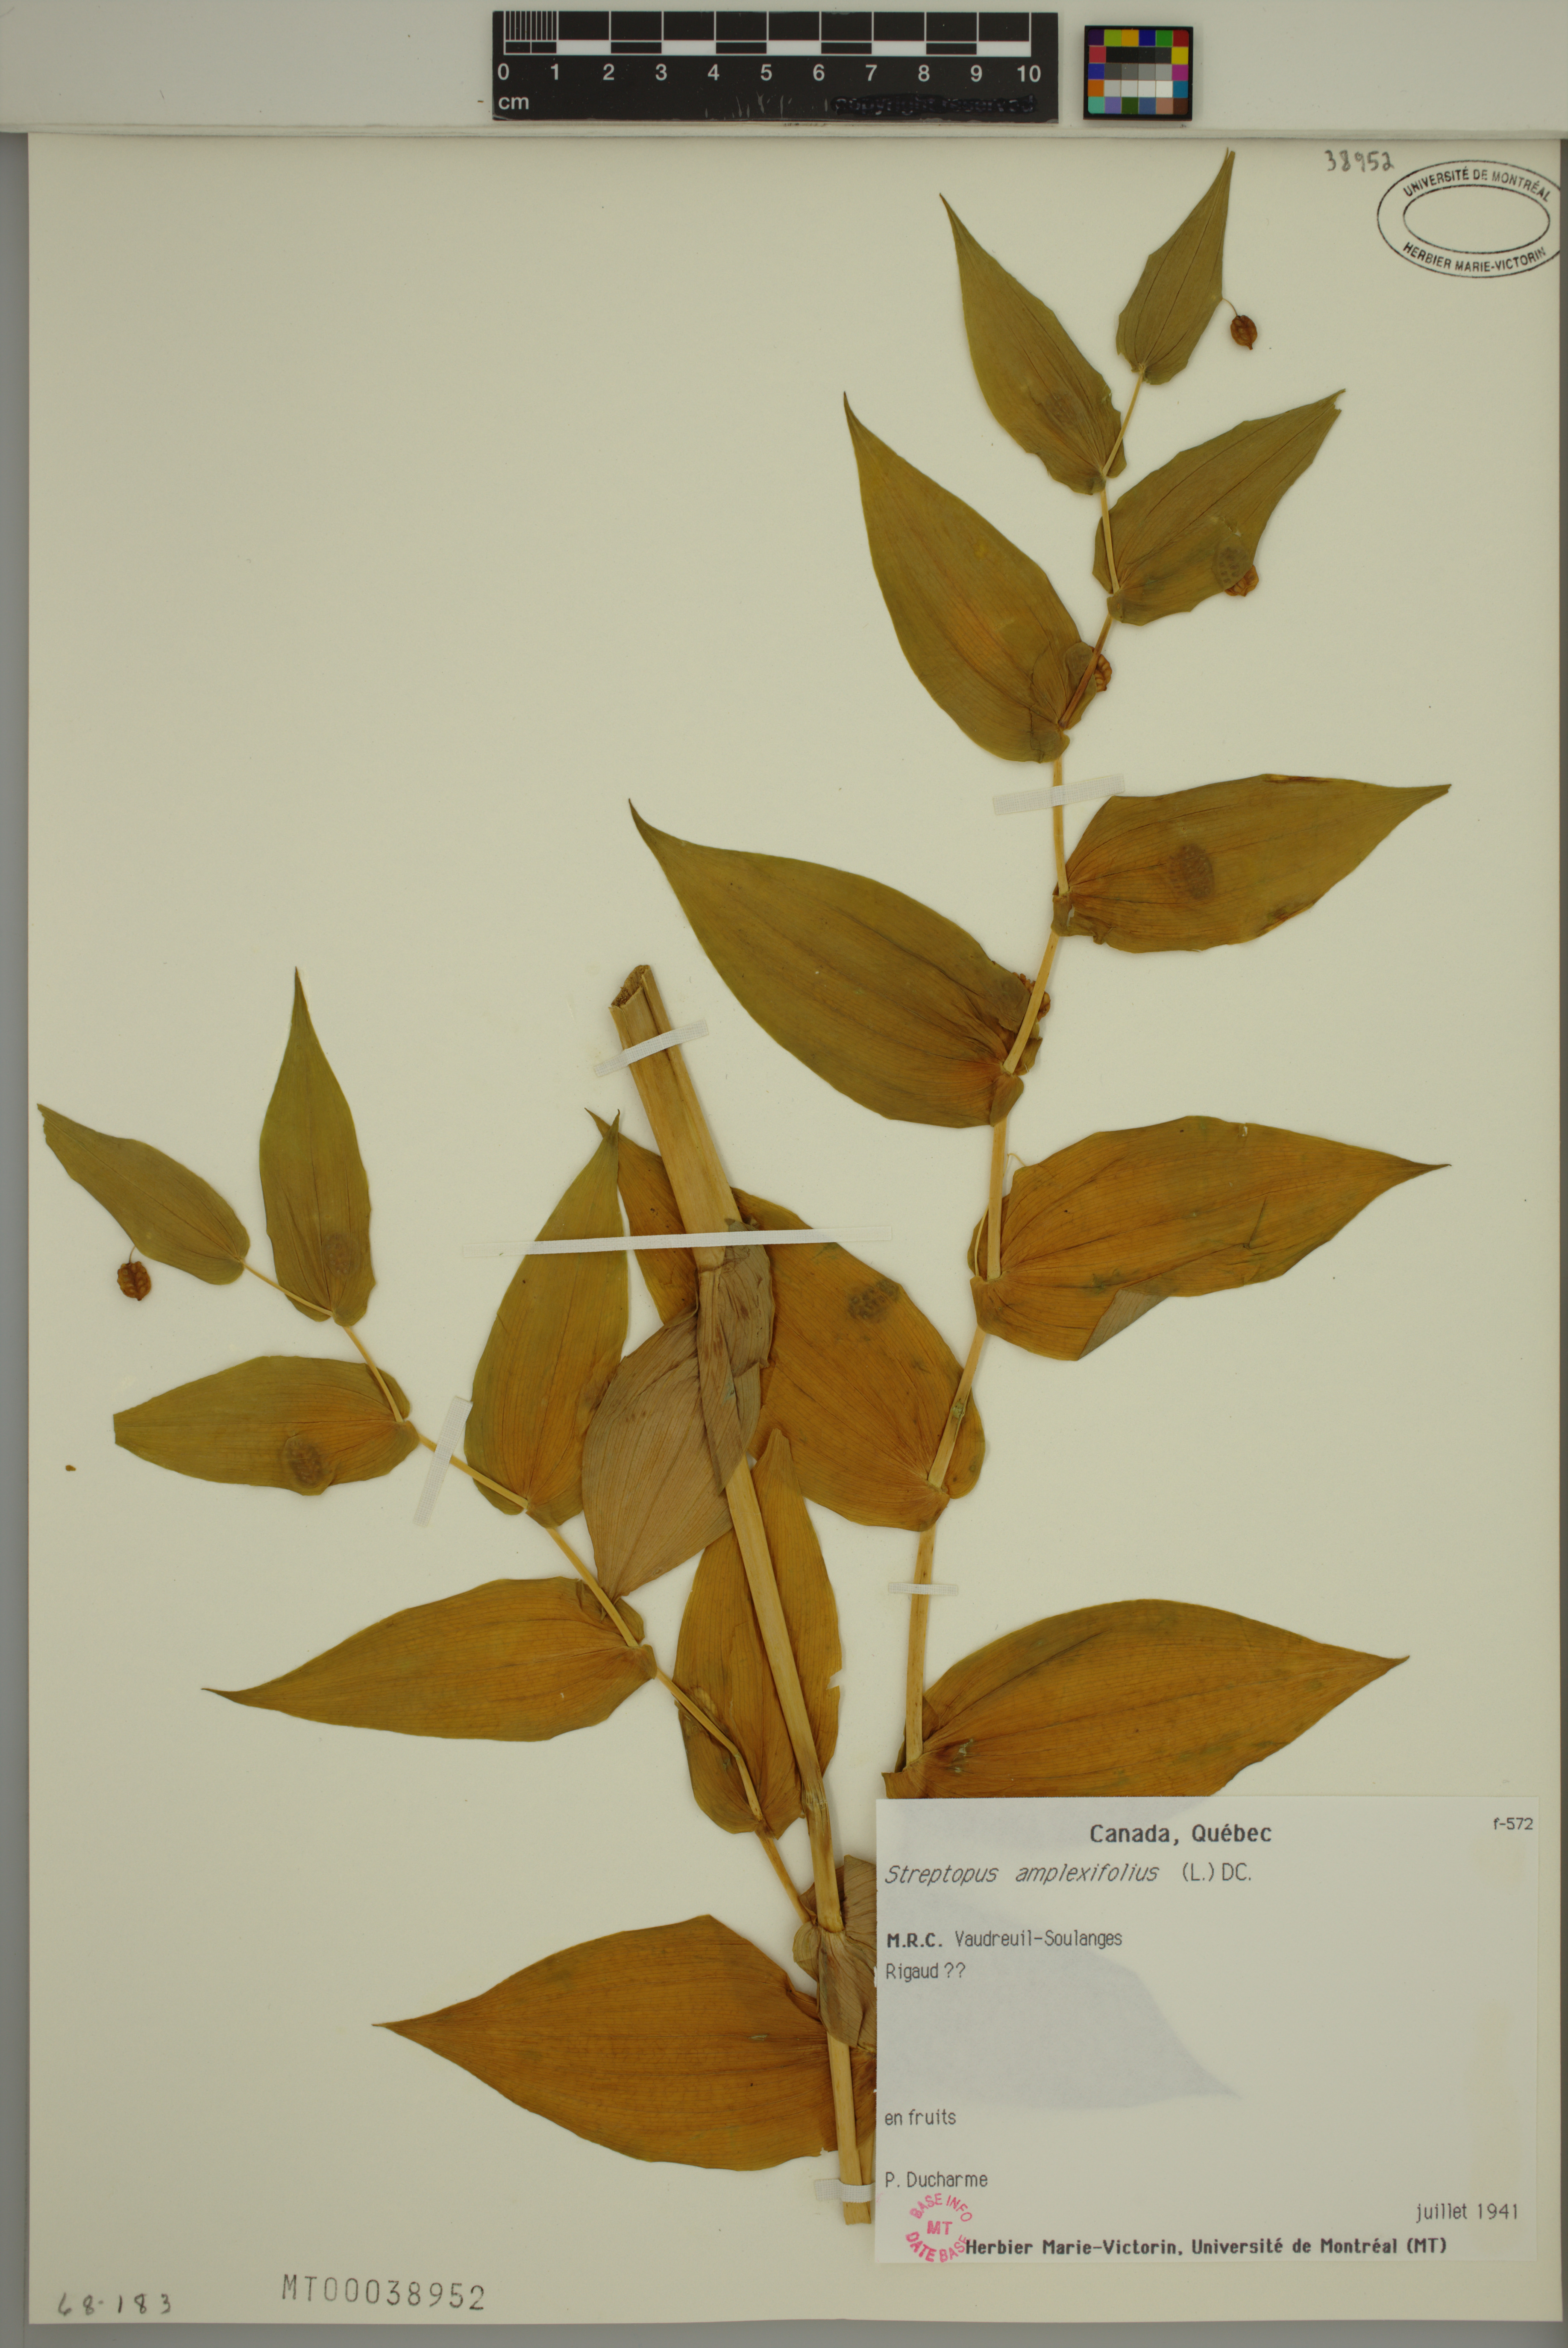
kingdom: Plantae
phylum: Tracheophyta
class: Liliopsida
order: Liliales
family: Liliaceae
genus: Streptopus
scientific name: Streptopus amplexifolius
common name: Clasp twisted stalk
